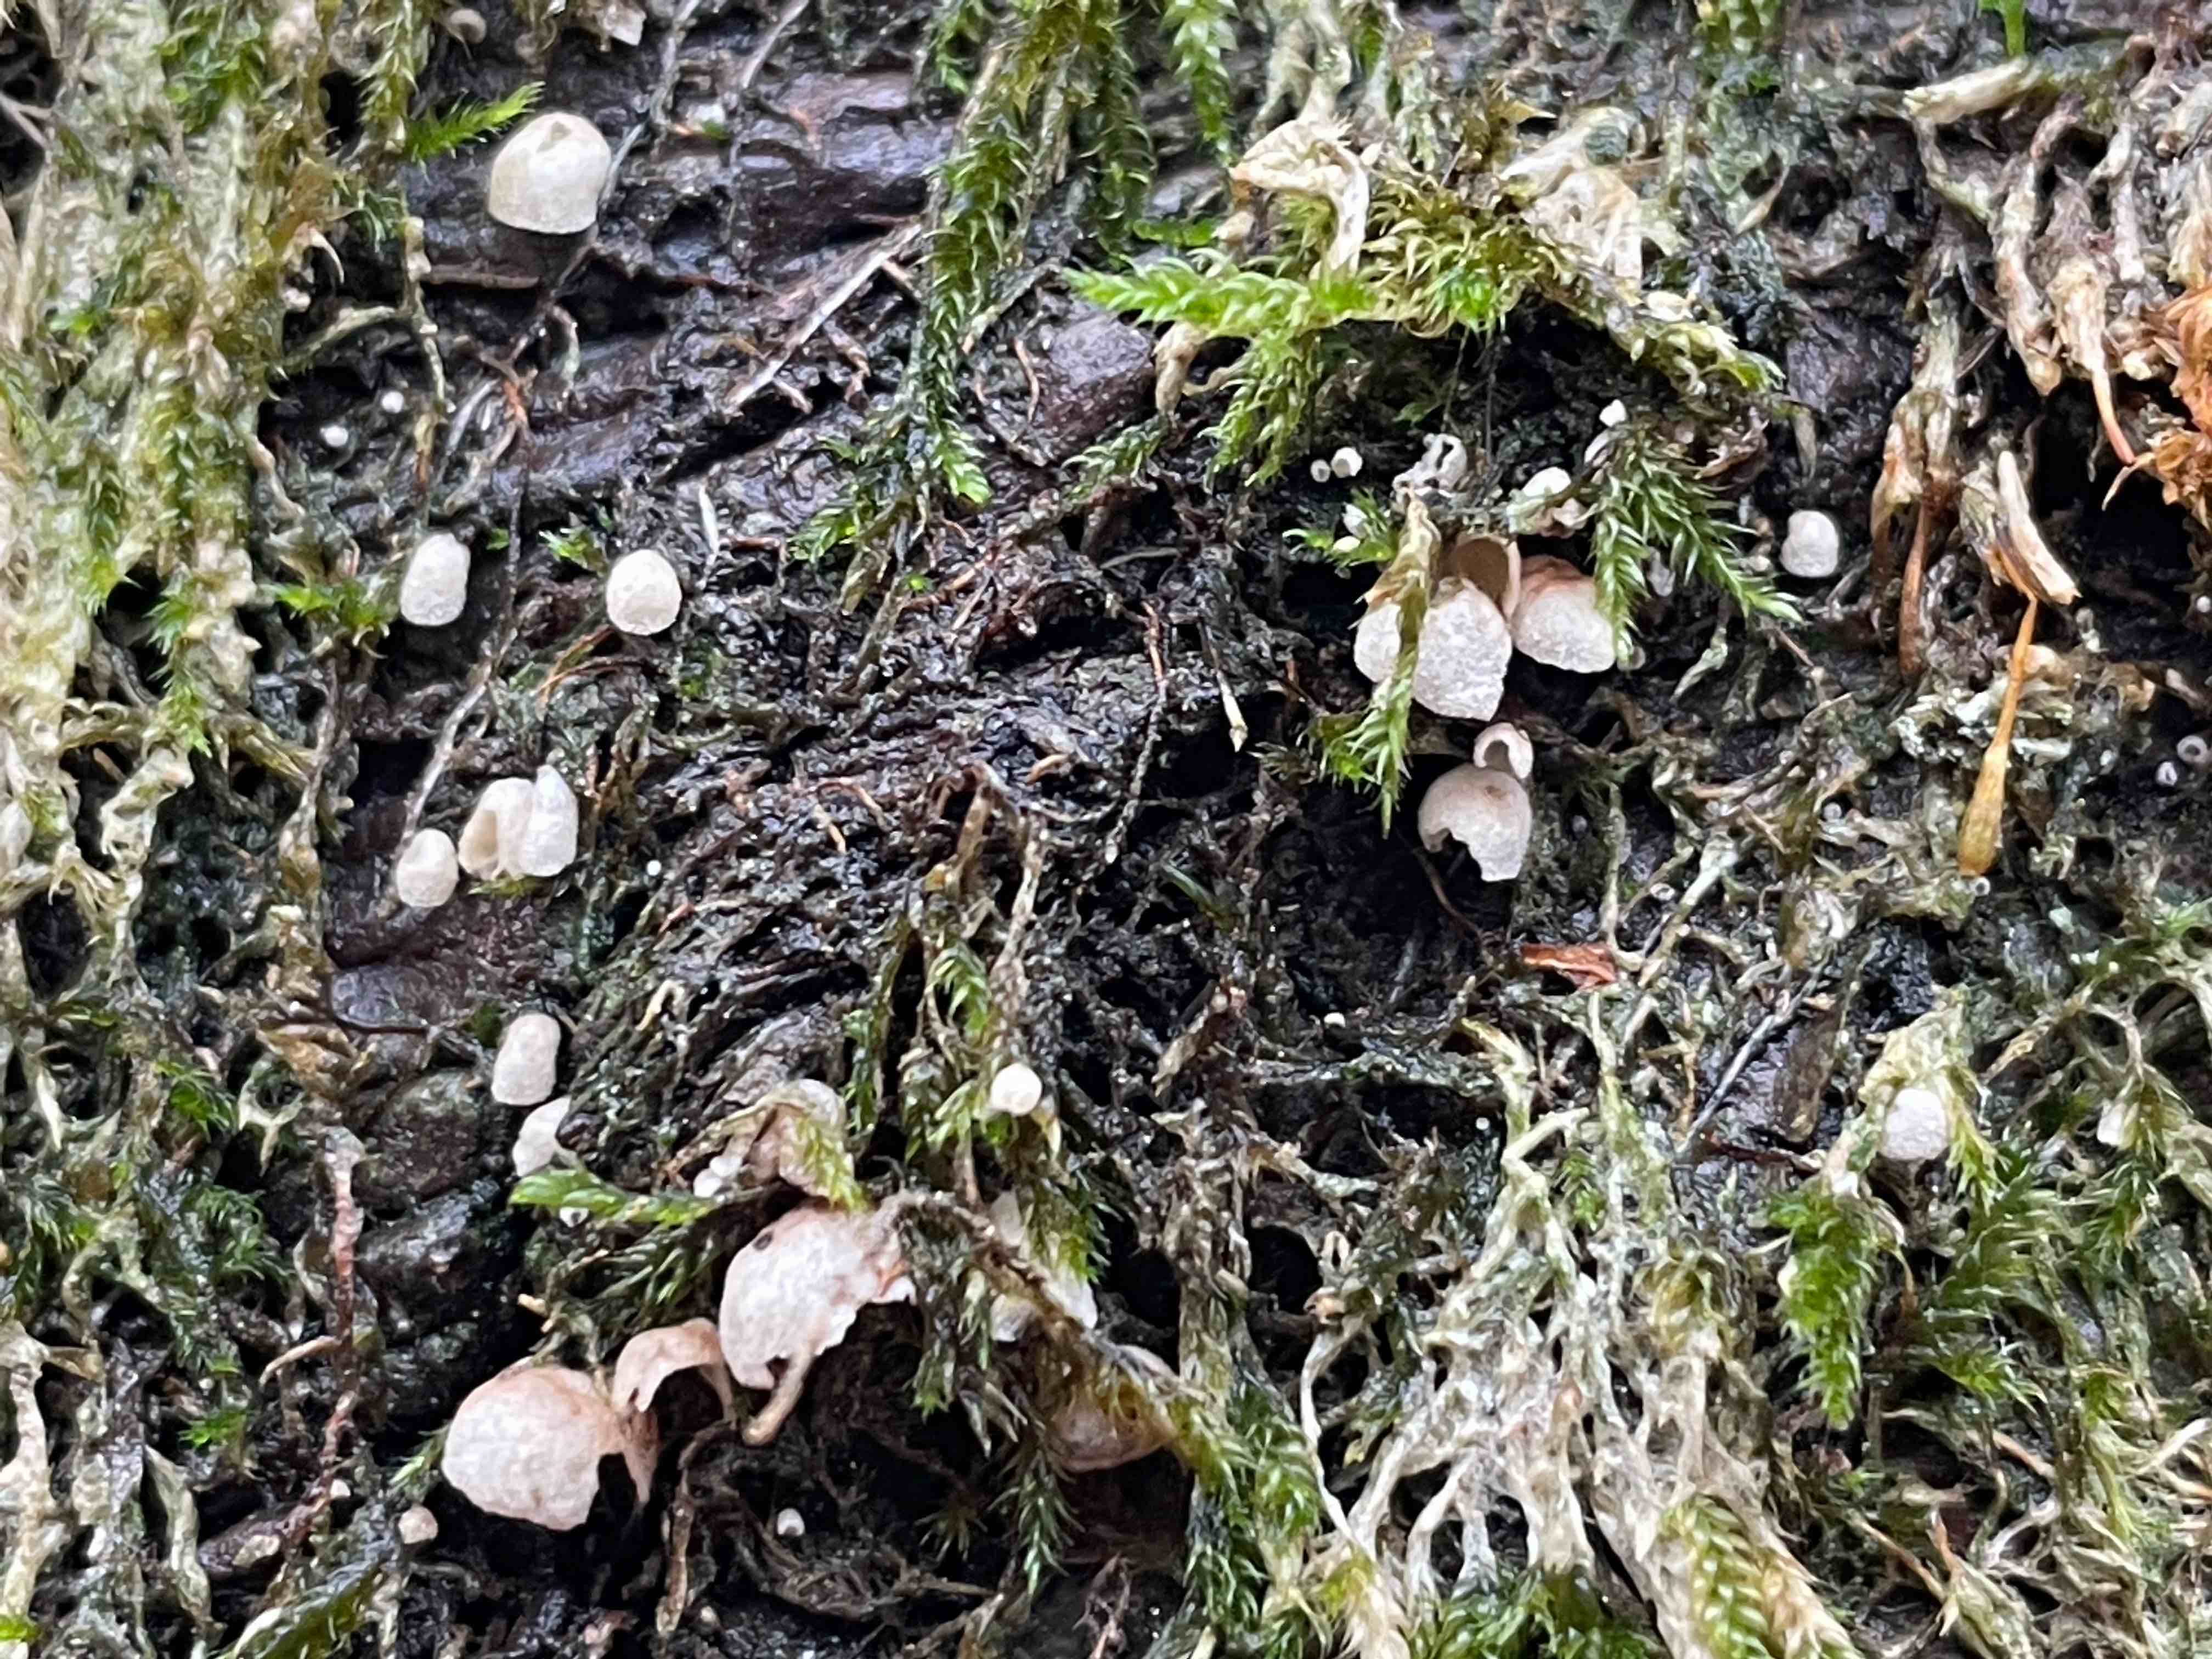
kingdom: Fungi
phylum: Basidiomycota
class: Agaricomycetes
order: Agaricales
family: Chromocyphellaceae
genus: Chromocyphella
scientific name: Chromocyphella muscicola
